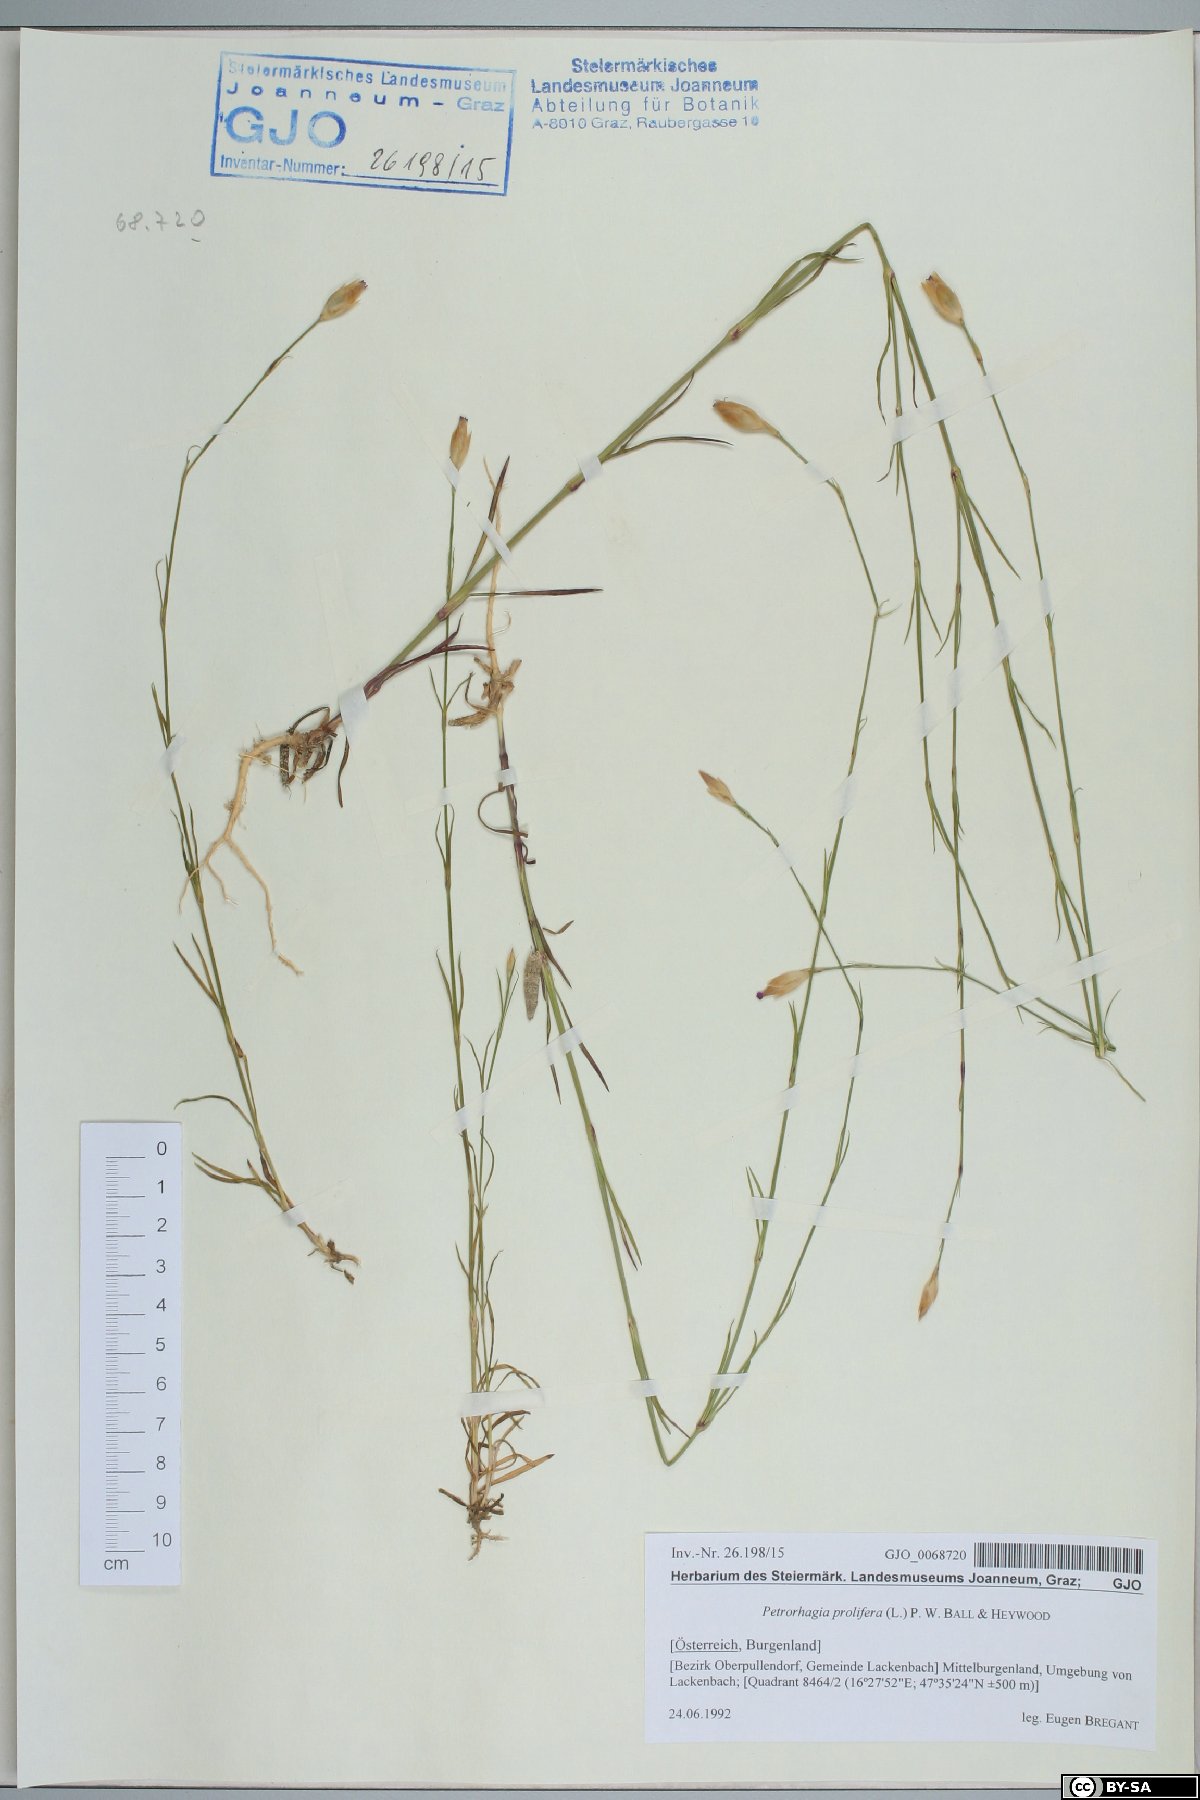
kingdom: Plantae
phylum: Tracheophyta
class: Magnoliopsida
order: Caryophyllales
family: Caryophyllaceae
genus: Petrorhagia
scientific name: Petrorhagia prolifera
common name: Proliferous pink
